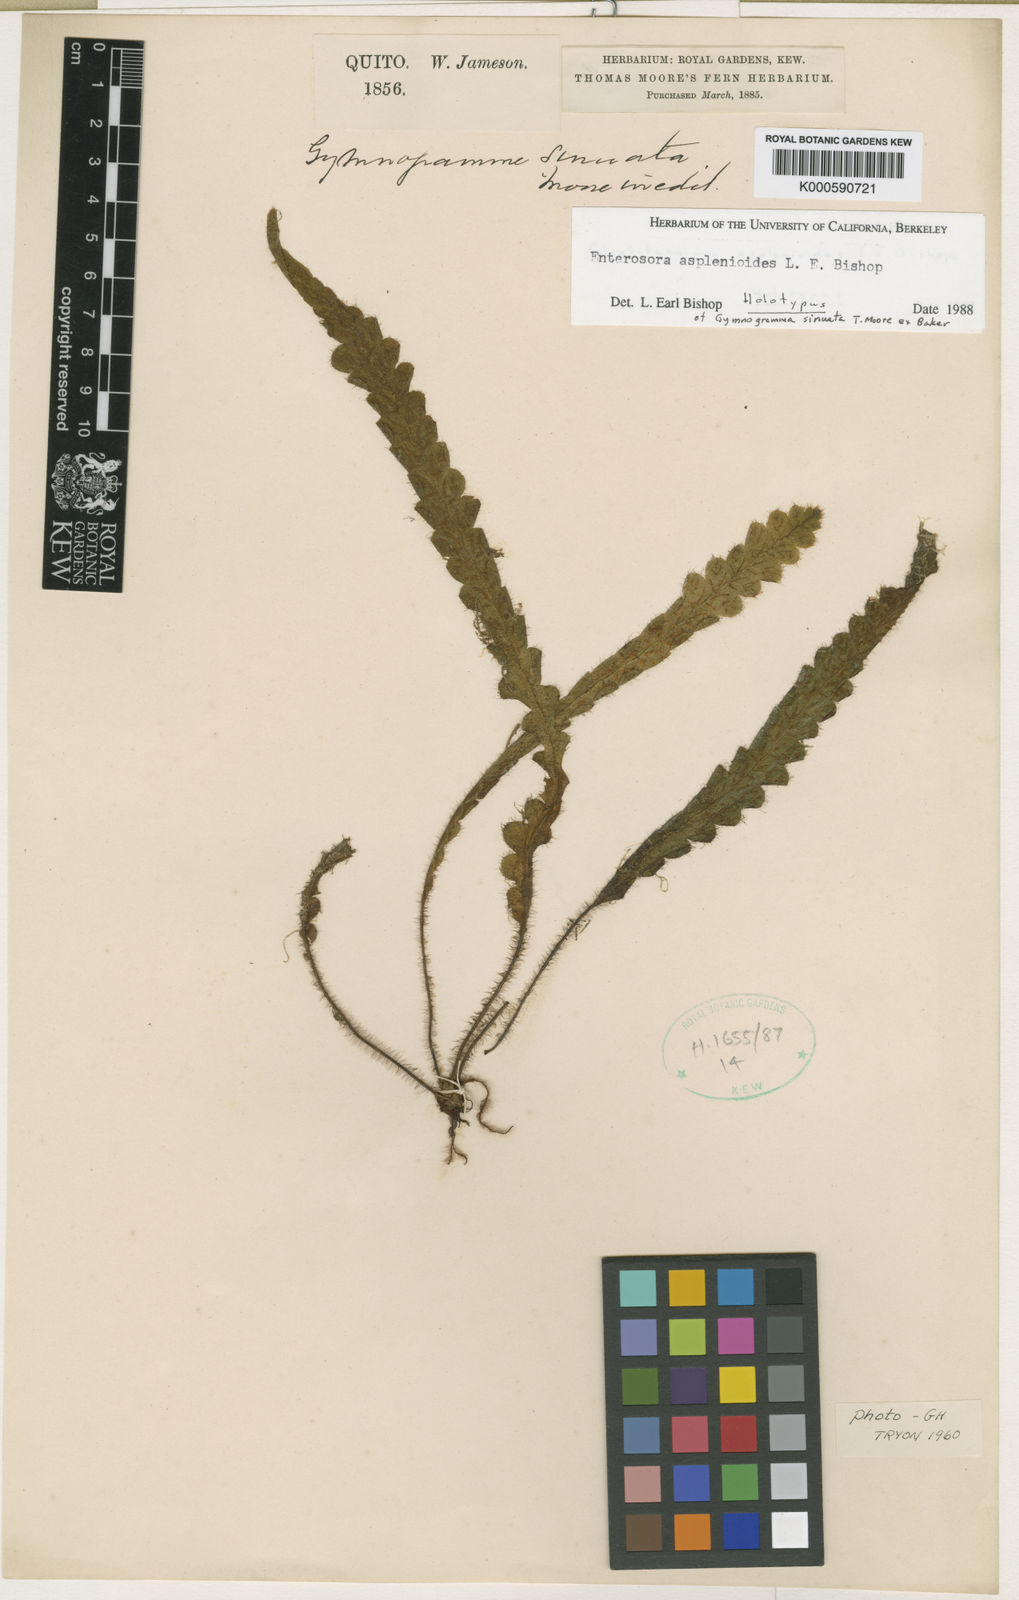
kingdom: Plantae
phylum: Tracheophyta
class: Polypodiopsida
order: Polypodiales
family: Polypodiaceae
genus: Enterosora
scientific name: Enterosora
